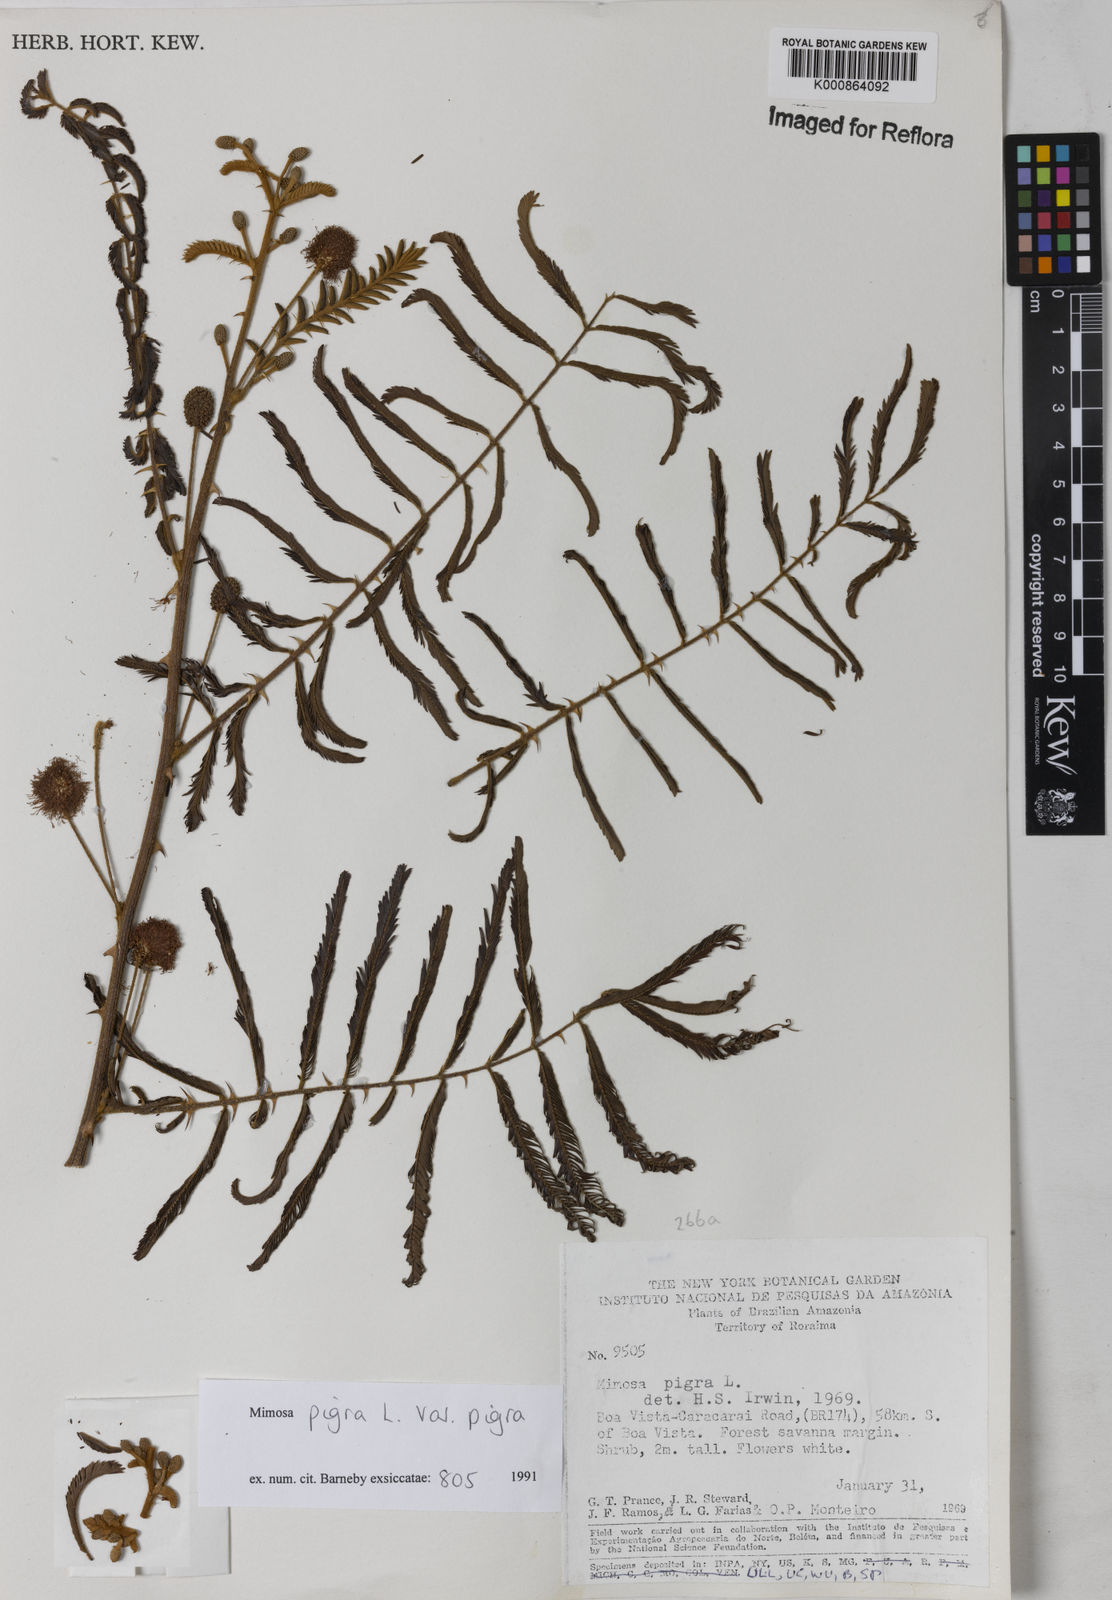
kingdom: Plantae
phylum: Tracheophyta
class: Magnoliopsida
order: Fabales
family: Fabaceae
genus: Mimosa
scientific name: Mimosa pigra
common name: Black mimosa
